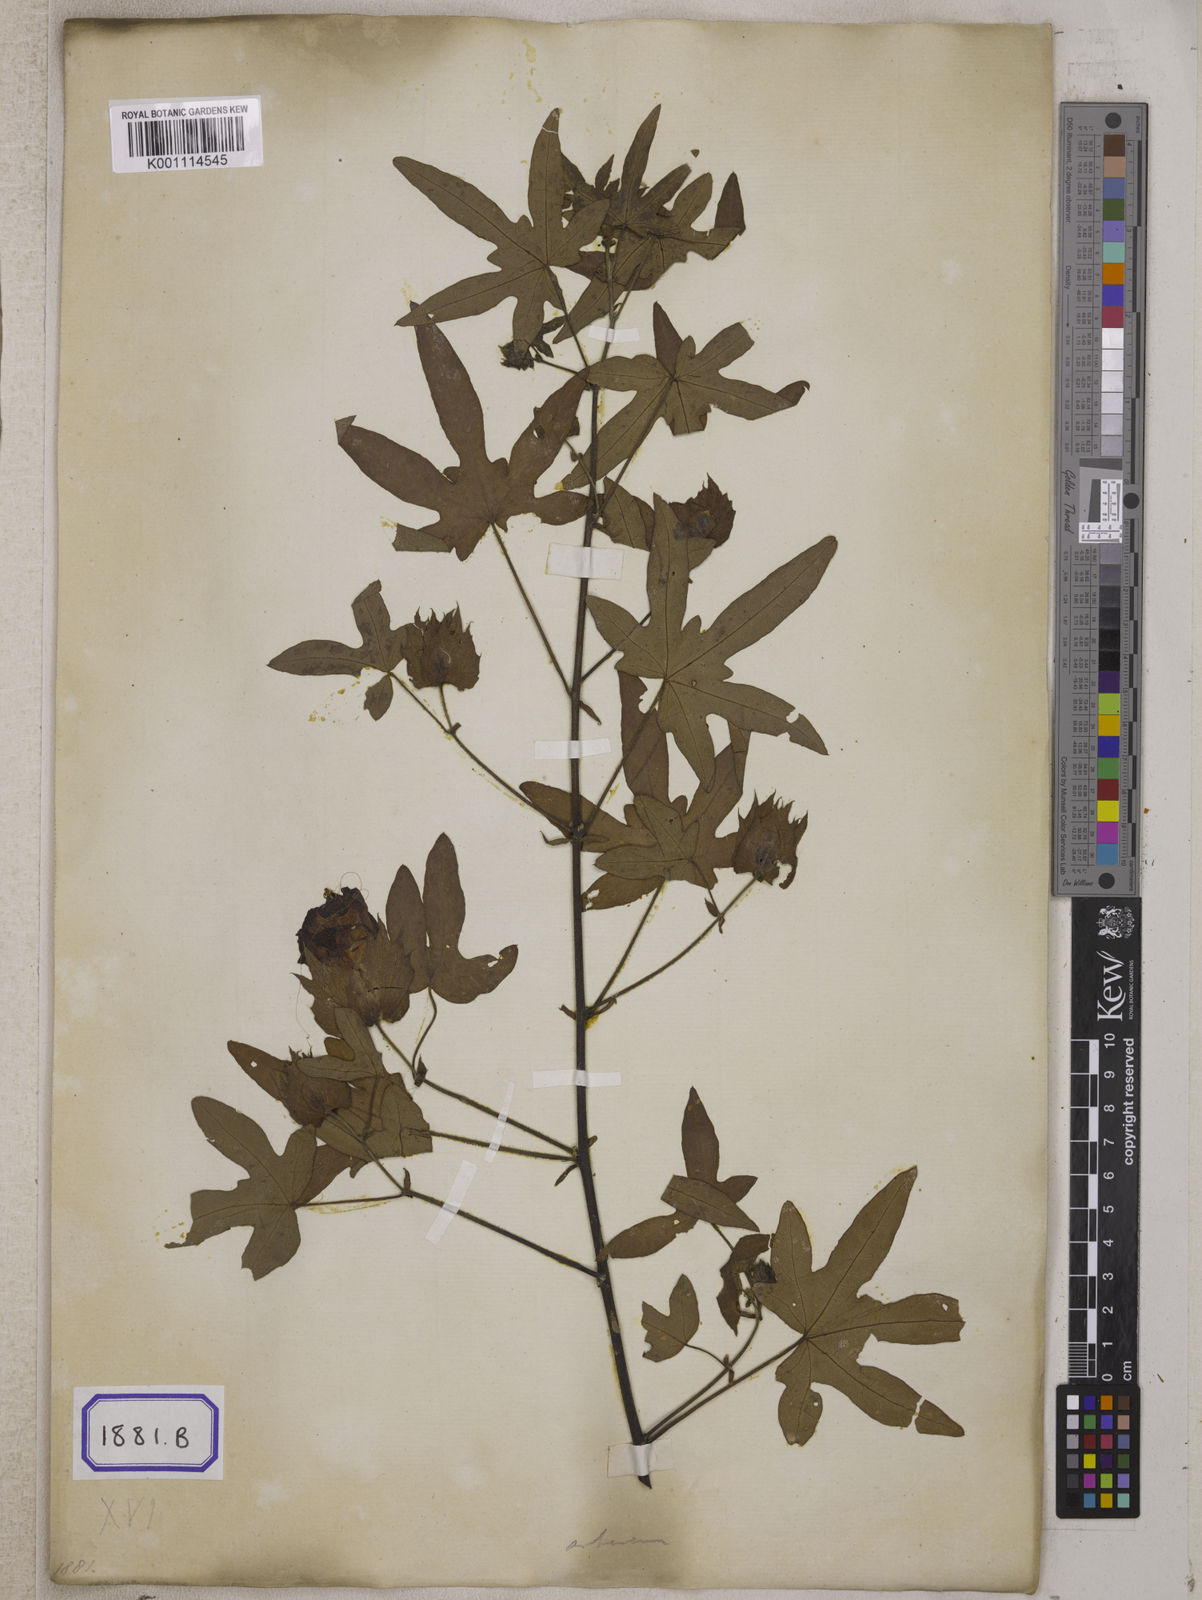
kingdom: Plantae
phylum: Tracheophyta
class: Magnoliopsida
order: Malvales
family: Malvaceae
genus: Gossypium
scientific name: Gossypium arboreum
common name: Tree cotton
